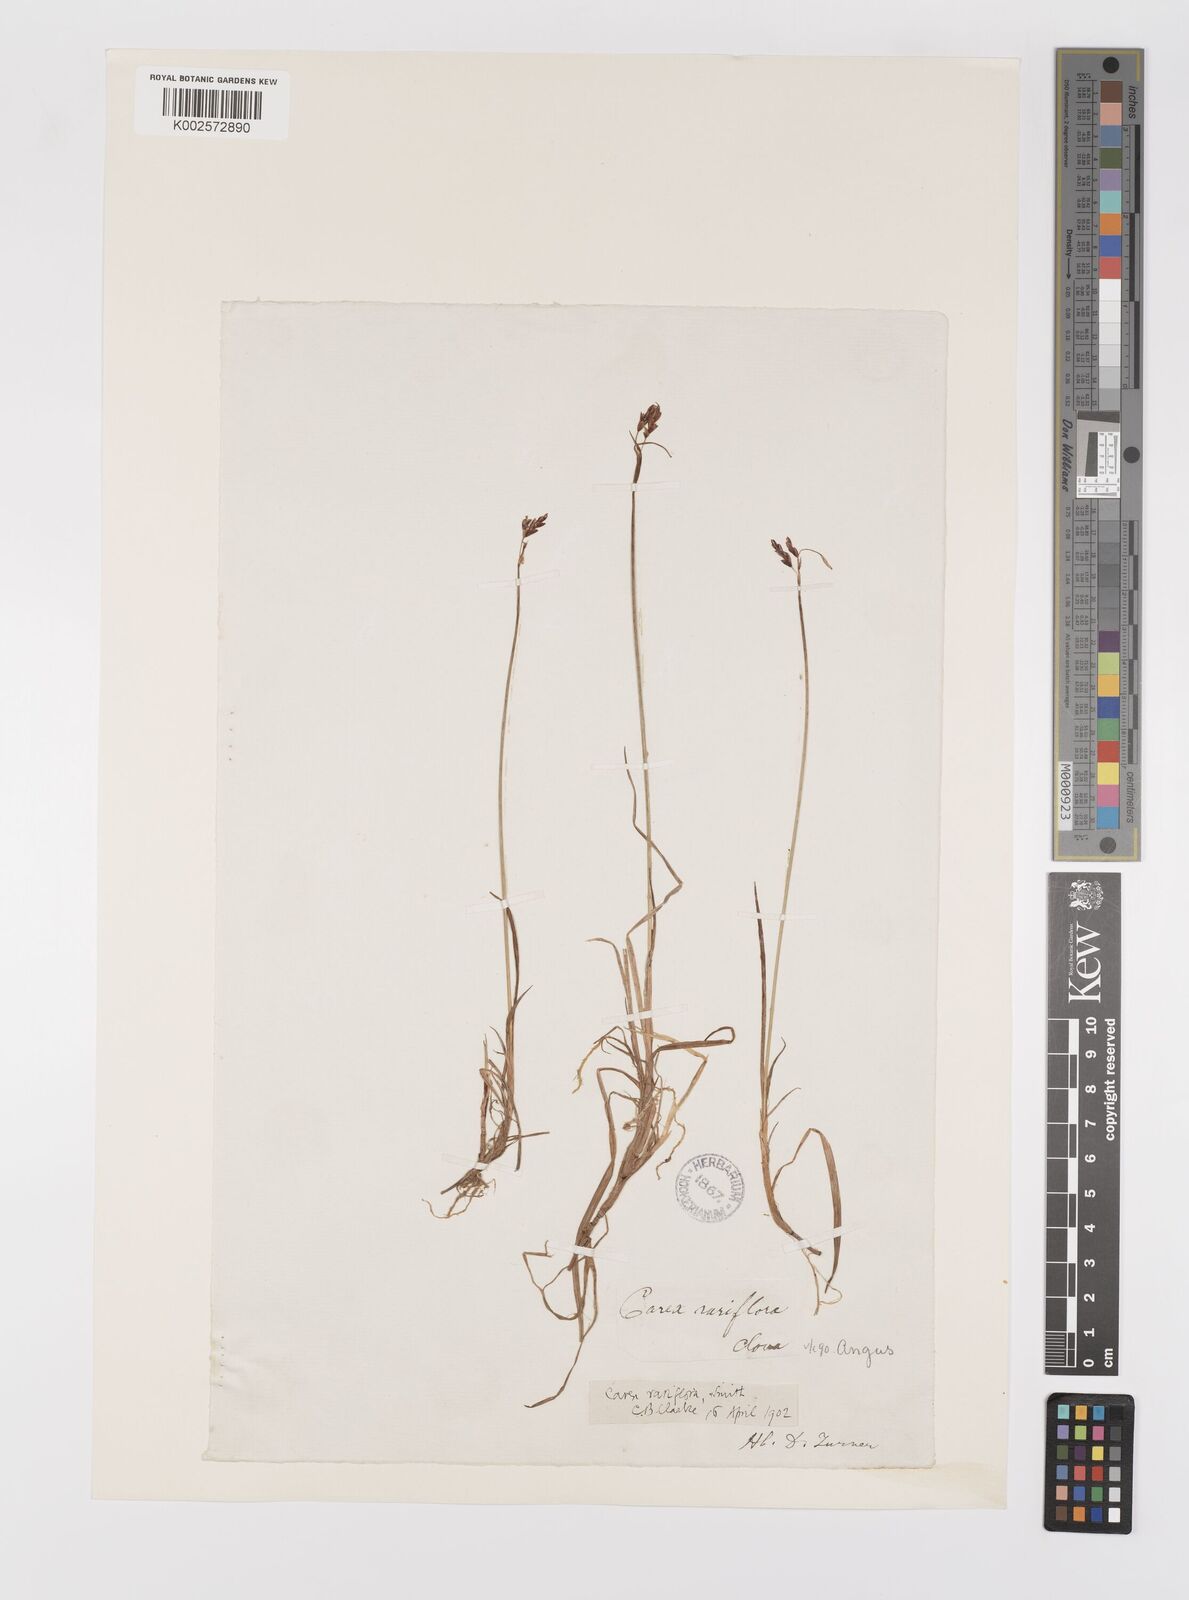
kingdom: Plantae
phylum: Tracheophyta
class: Liliopsida
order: Poales
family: Cyperaceae
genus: Carex
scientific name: Carex rariflora
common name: Loose-flowered alpine sedge
